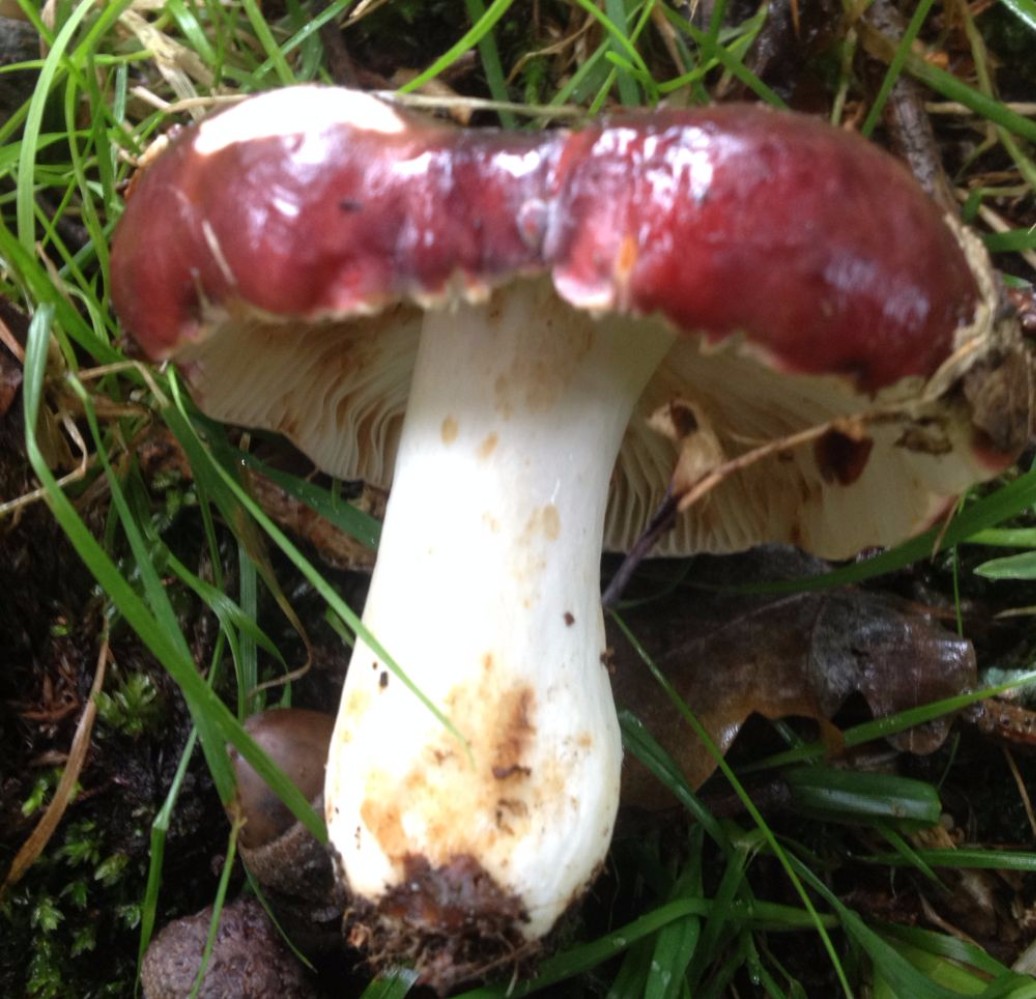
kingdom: Fungi
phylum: Basidiomycota
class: Agaricomycetes
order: Russulales
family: Russulaceae
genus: Russula
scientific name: Russula atropurpurea
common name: purpurbroget skørhat
